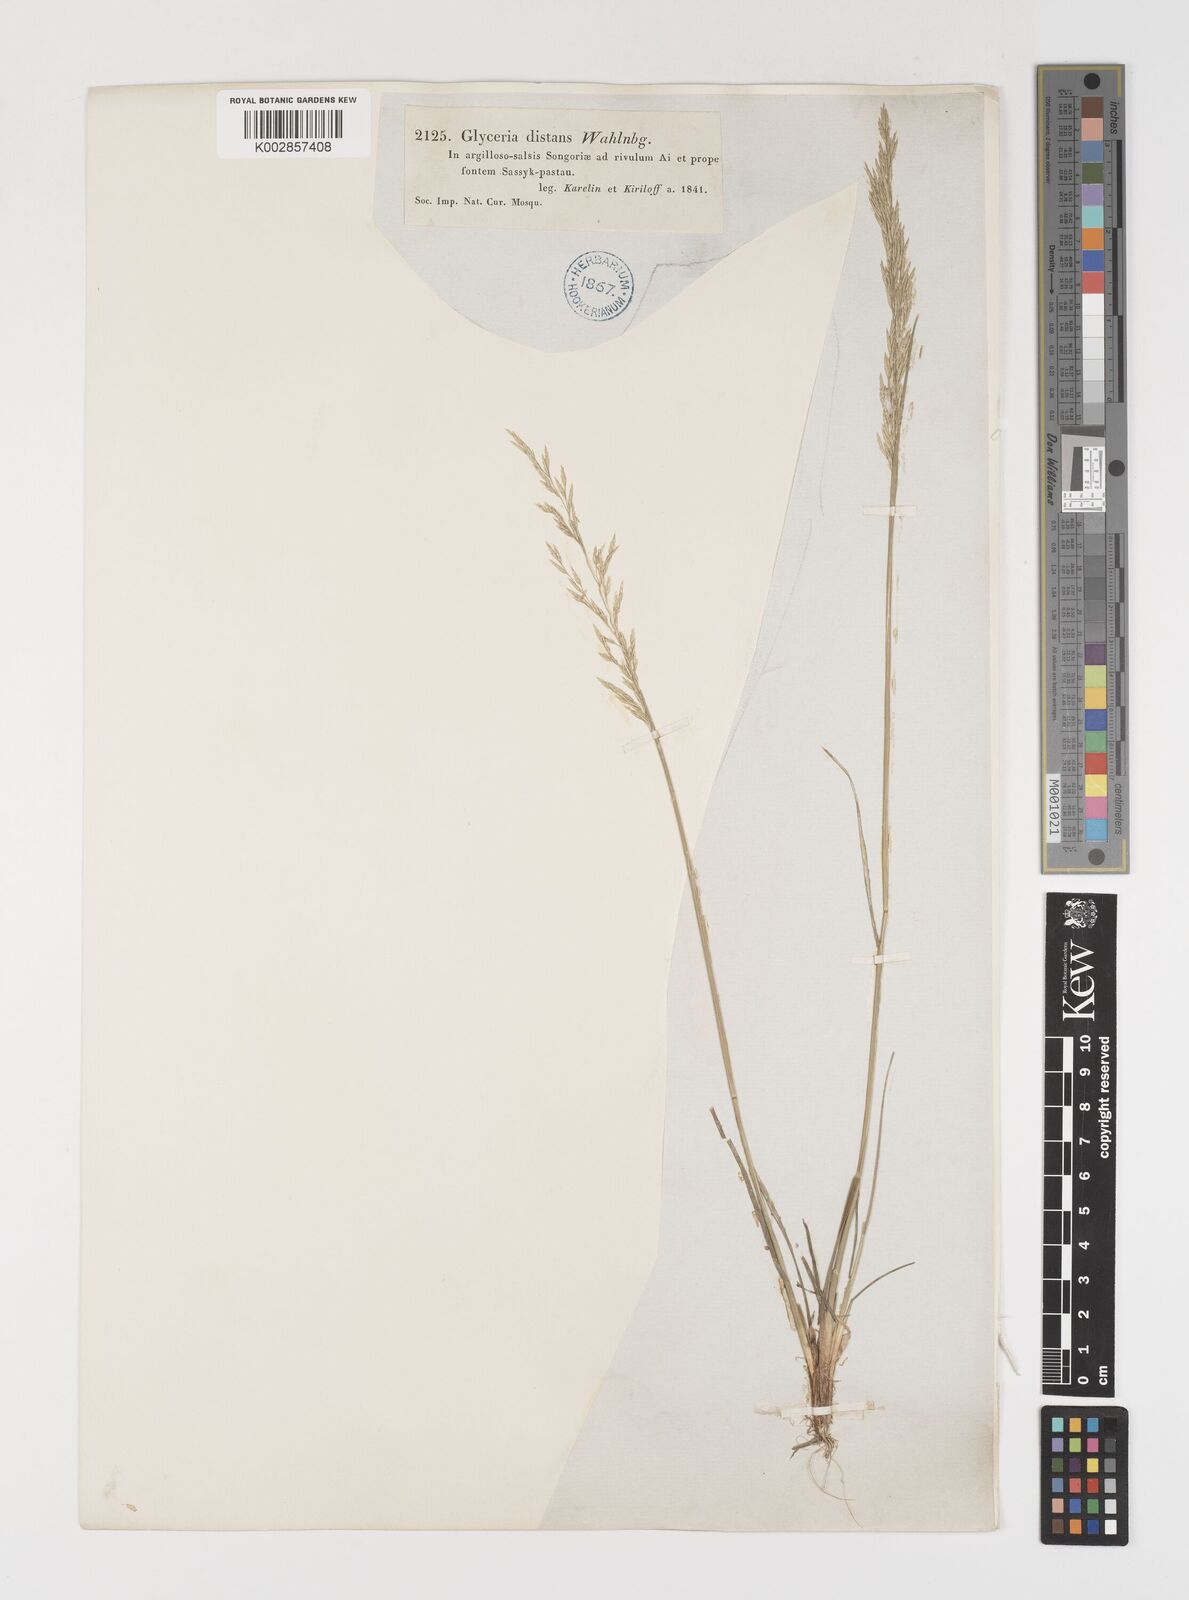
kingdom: Plantae
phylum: Tracheophyta
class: Liliopsida
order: Poales
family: Poaceae
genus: Puccinellia
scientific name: Puccinellia distans
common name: Weeping alkaligrass
